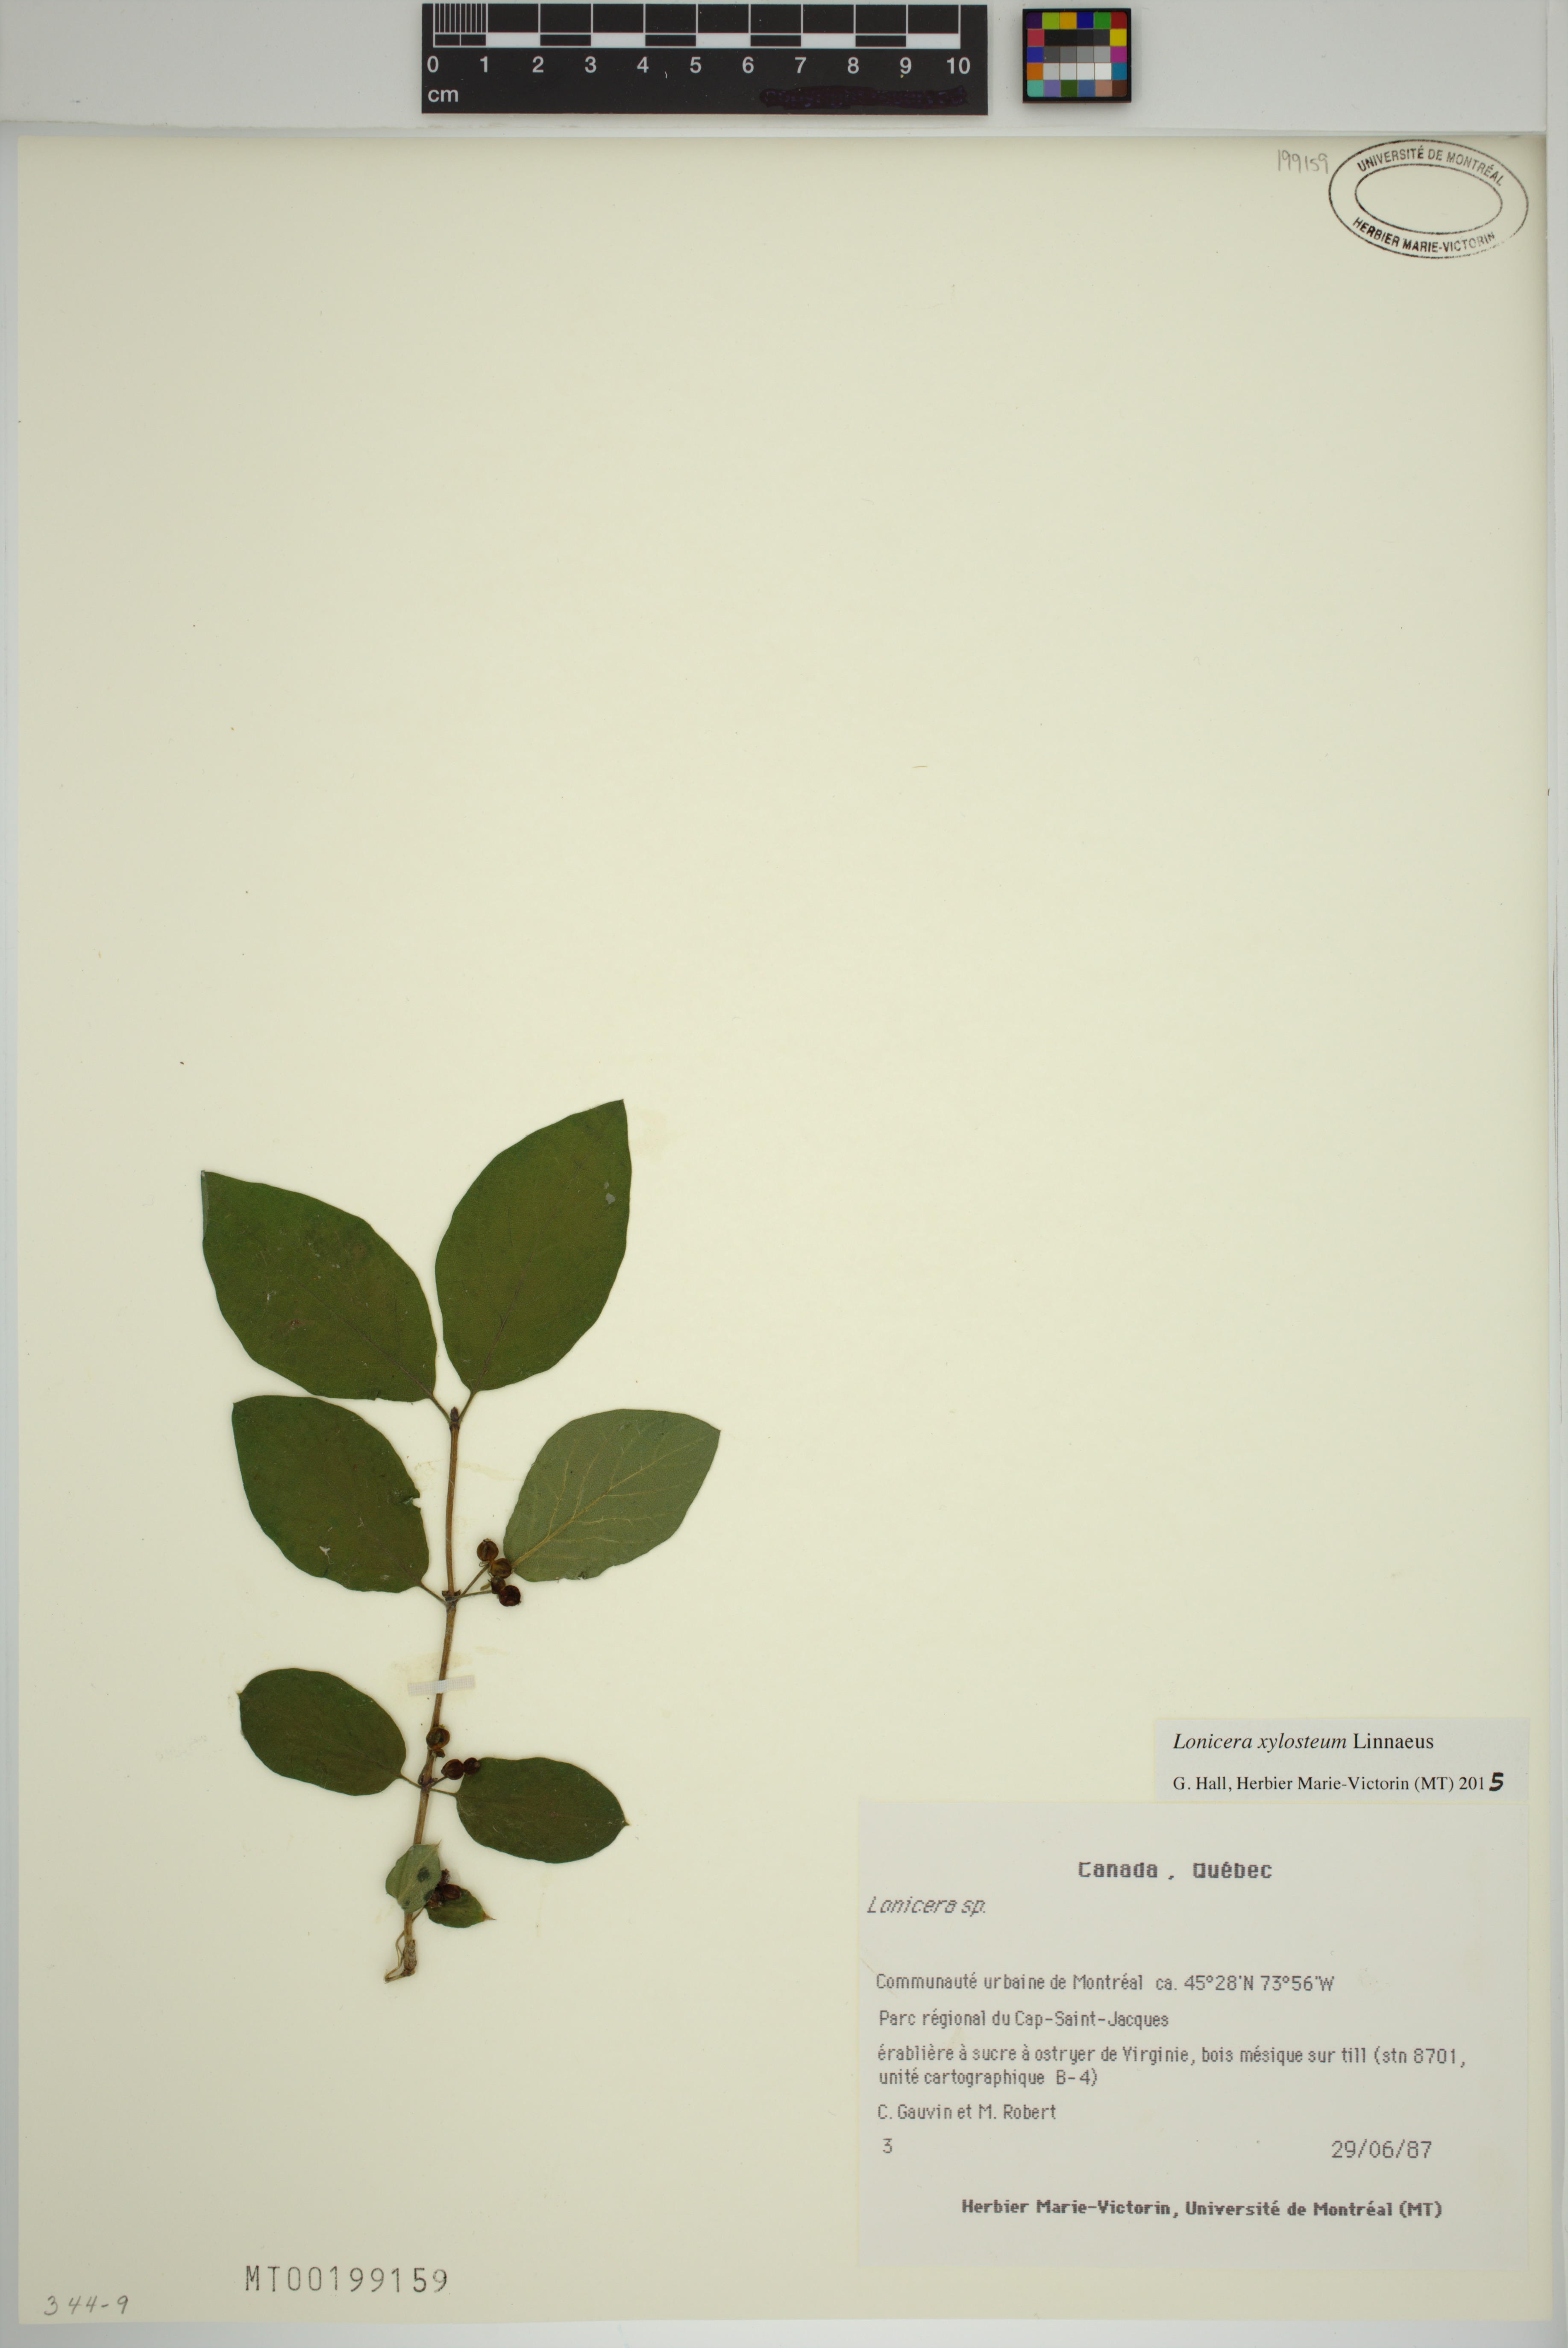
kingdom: Plantae
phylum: Tracheophyta
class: Magnoliopsida
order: Dipsacales
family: Caprifoliaceae
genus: Lonicera
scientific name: Lonicera xylosteum
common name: Fly honeysuckle
